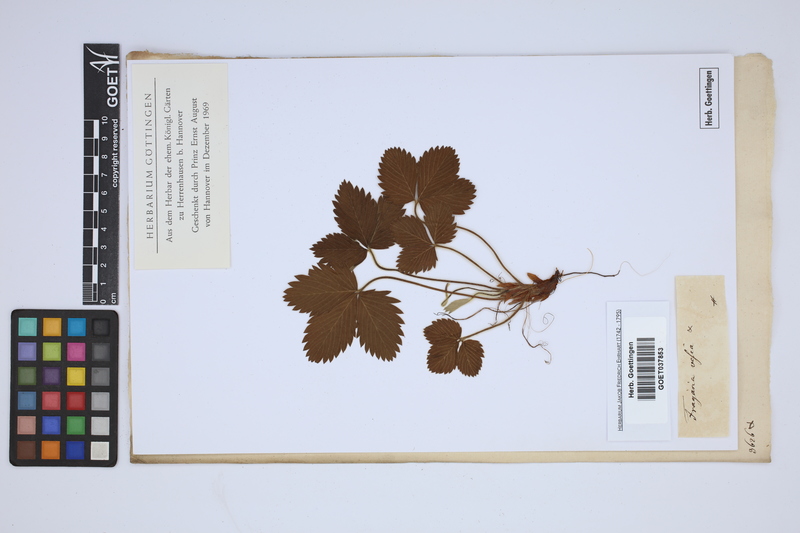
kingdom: Plantae
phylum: Tracheophyta
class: Magnoliopsida
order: Rosales
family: Rosaceae
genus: Fragaria
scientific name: Fragaria vesca
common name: Wild strawberry
